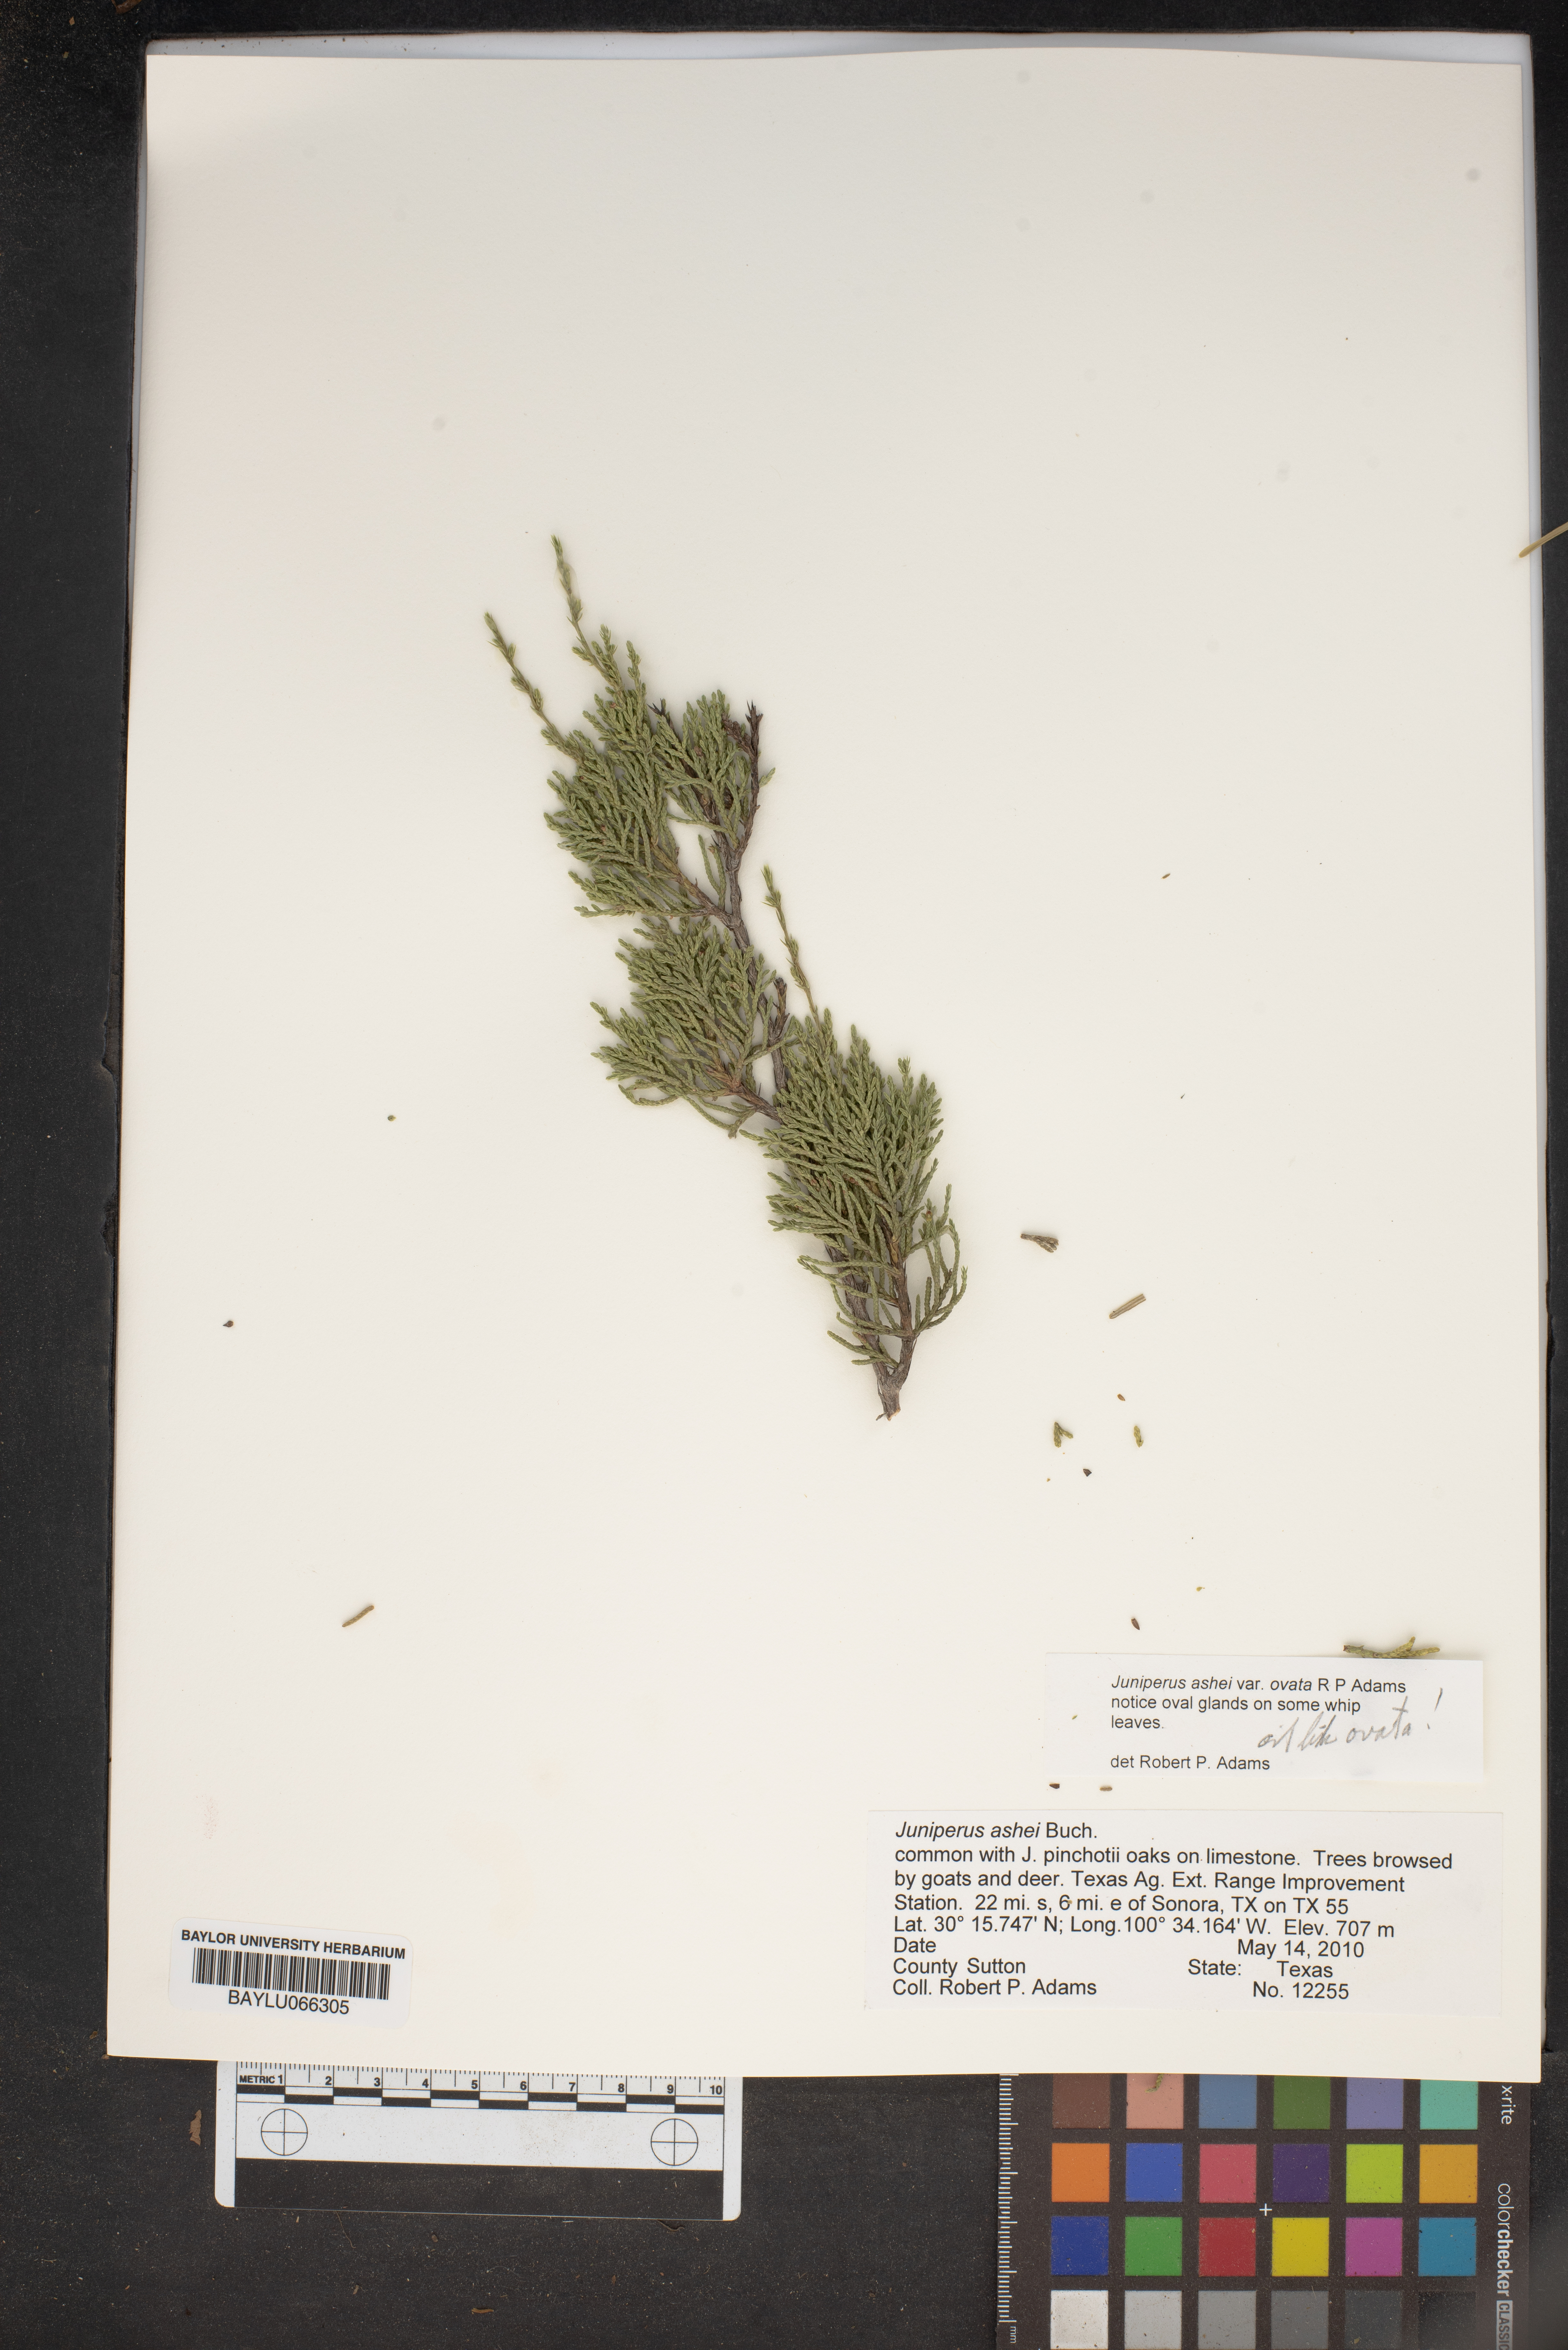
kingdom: Plantae
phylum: Tracheophyta
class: Pinopsida
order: Pinales
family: Cupressaceae
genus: Juniperus
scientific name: Juniperus ashei
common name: Mexican juniper
